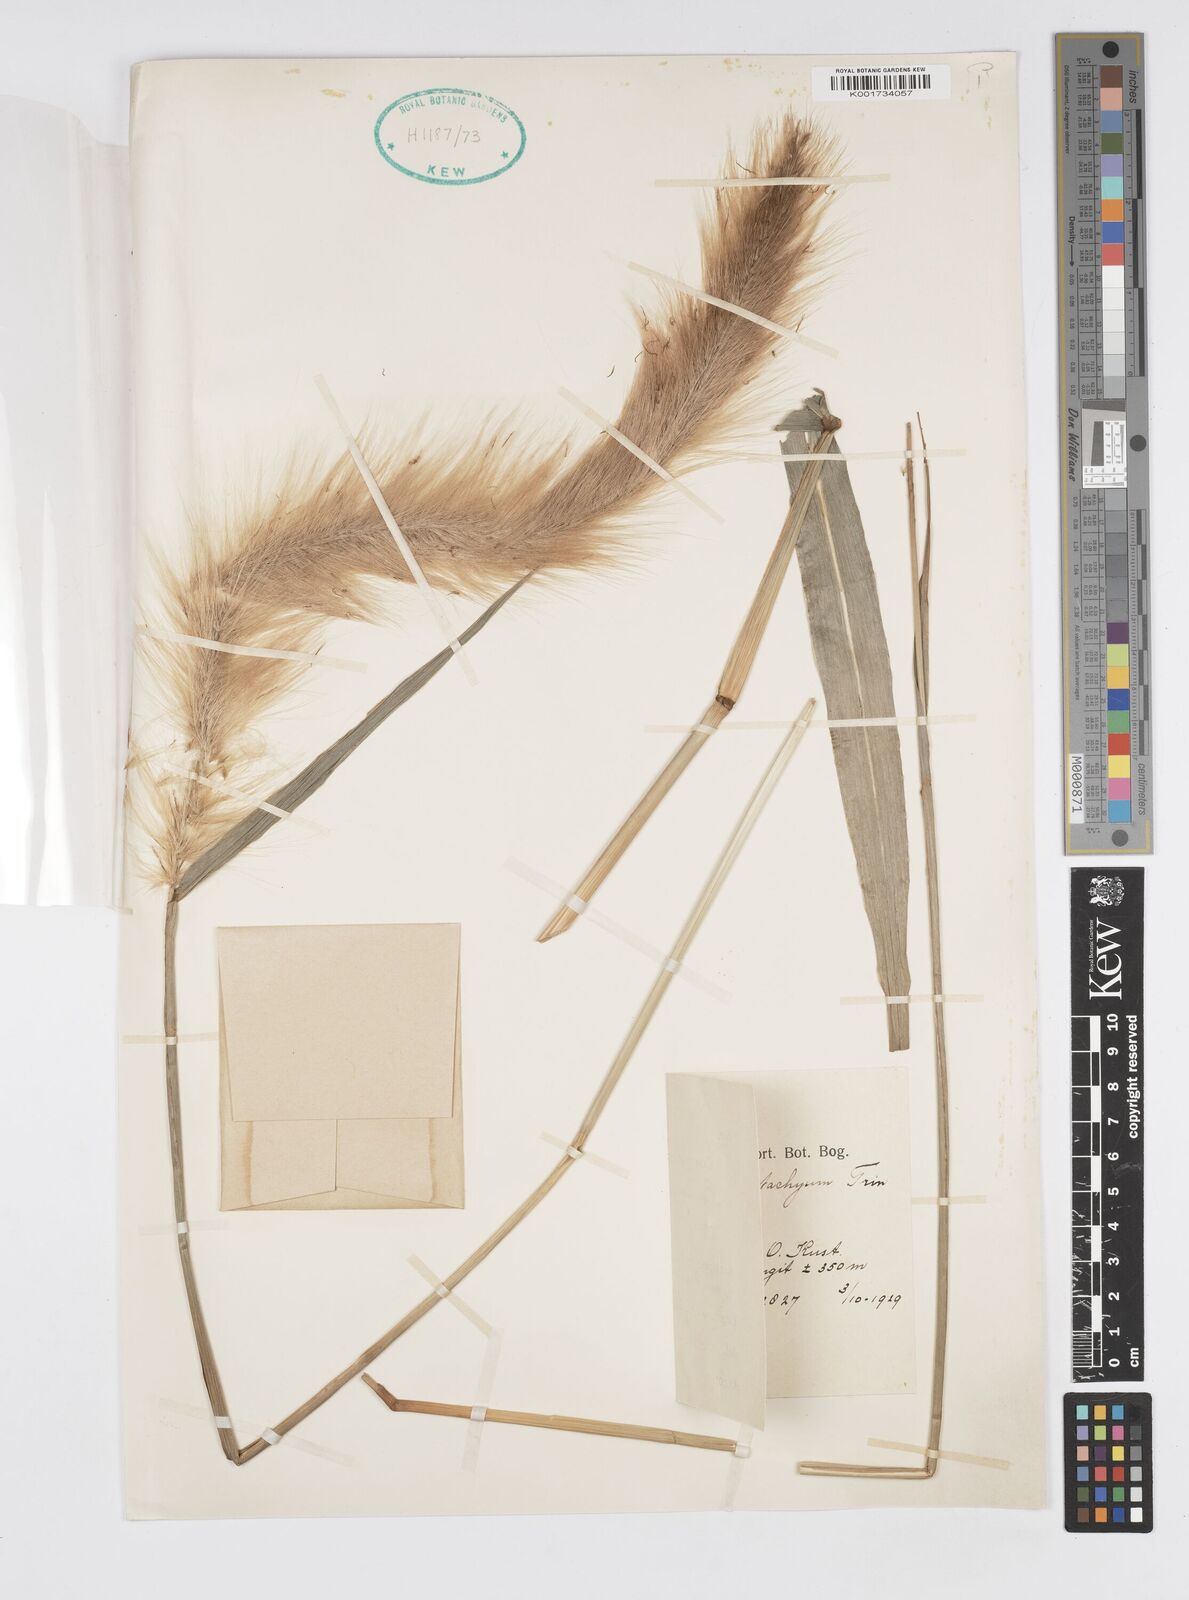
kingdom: Plantae
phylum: Tracheophyta
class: Liliopsida
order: Poales
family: Poaceae
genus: Cenchrus
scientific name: Cenchrus purpureus
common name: Elephant grass
